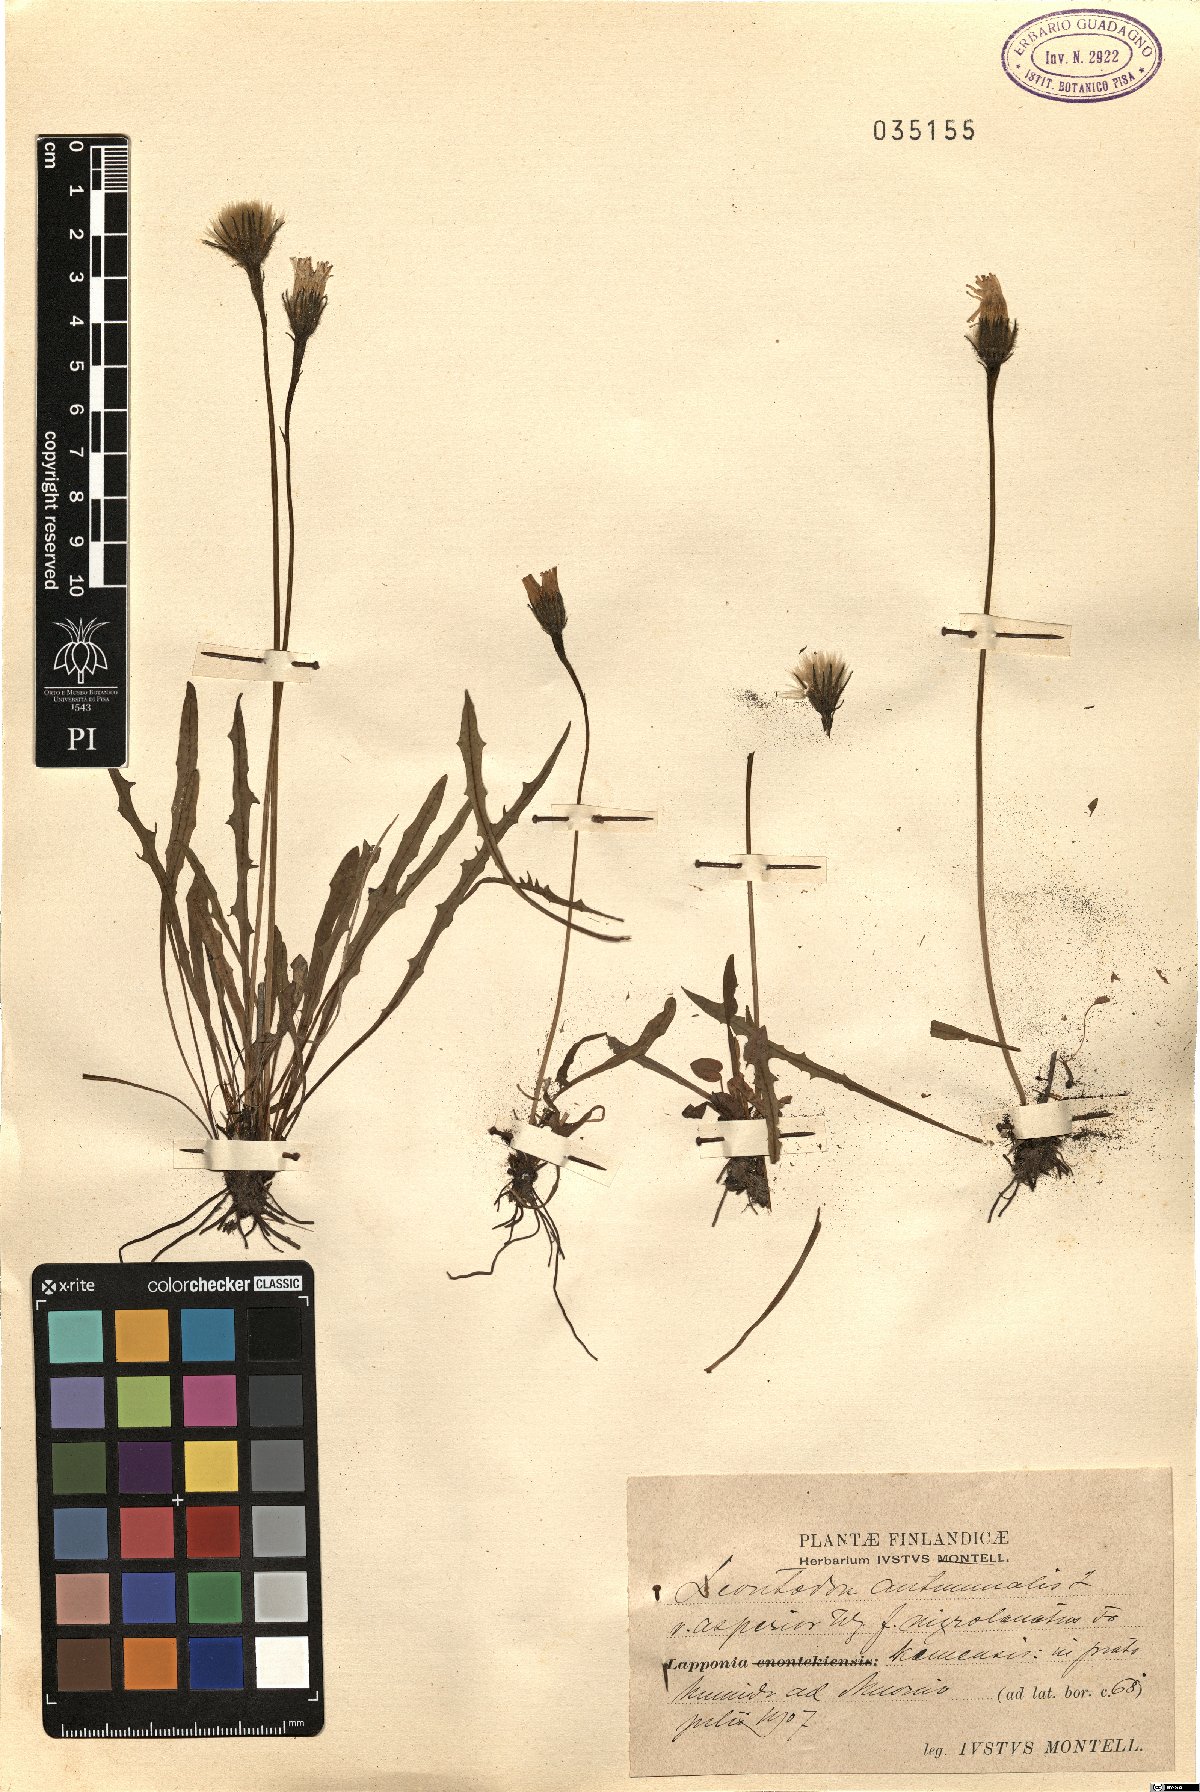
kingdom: Plantae
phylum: Tracheophyta
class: Magnoliopsida
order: Asterales
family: Asteraceae
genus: Scorzoneroides
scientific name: Scorzoneroides autumnalis
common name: Autumn hawkbit
